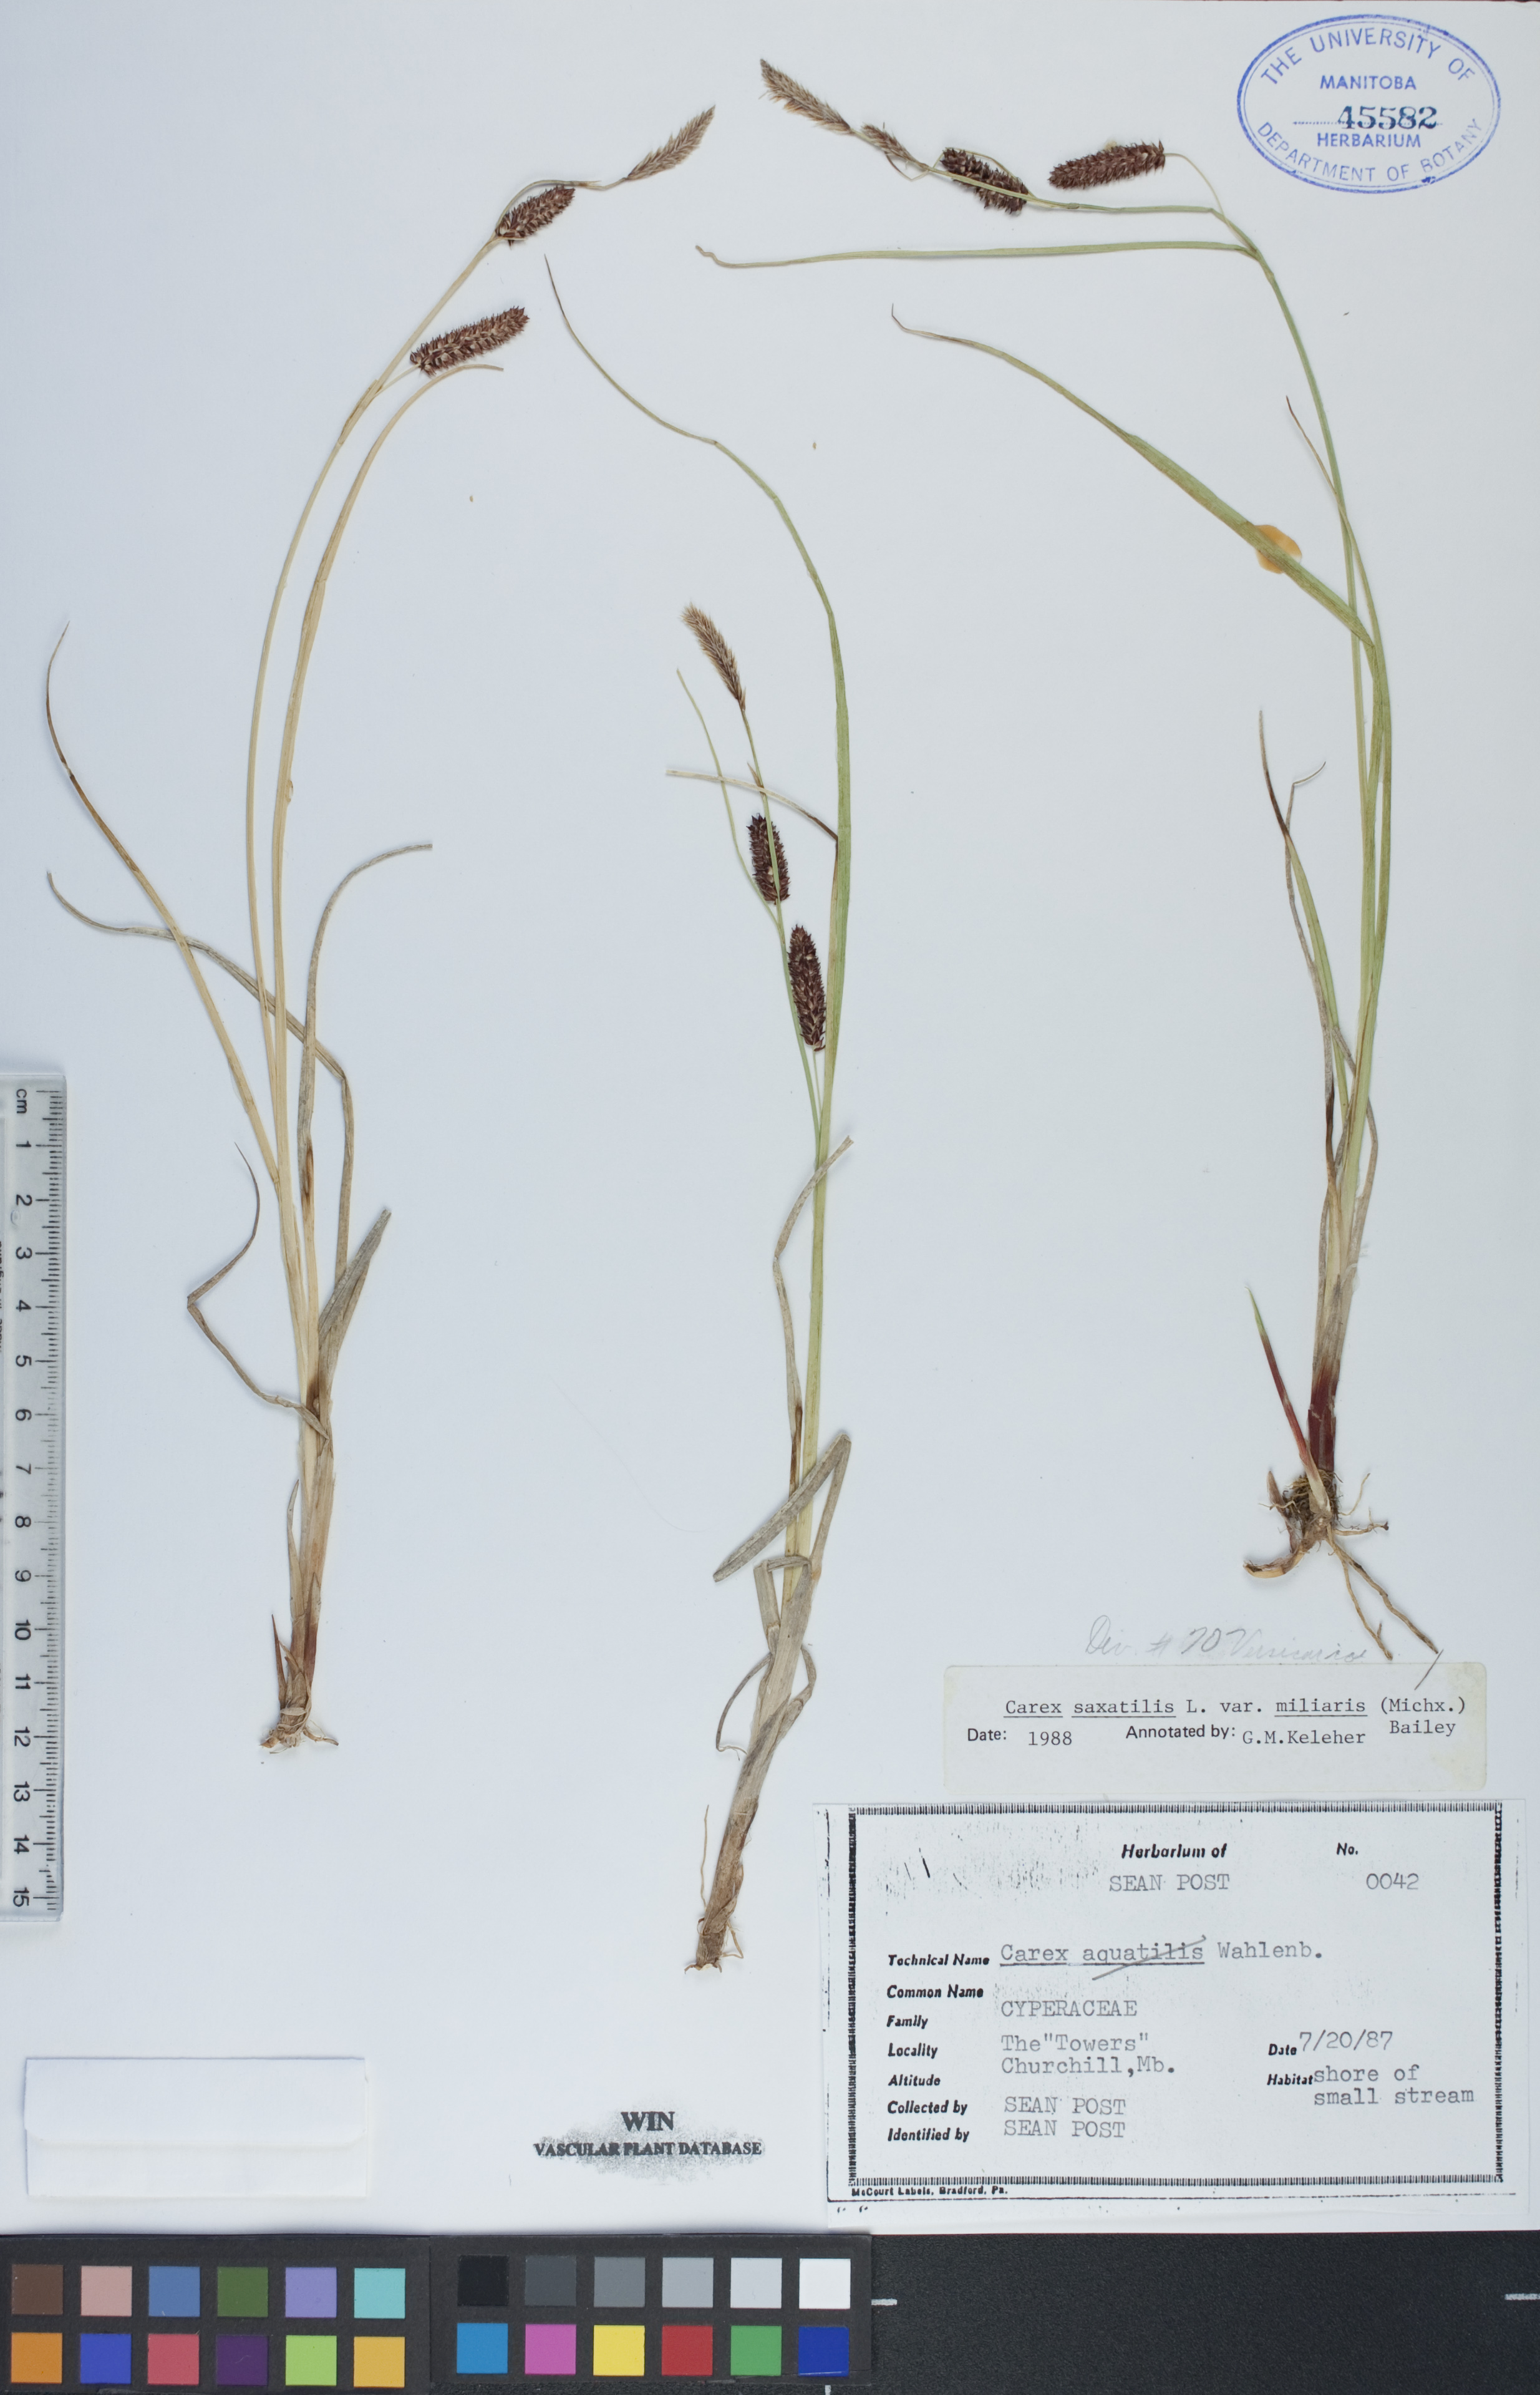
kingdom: Plantae
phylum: Tracheophyta
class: Liliopsida
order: Poales
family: Cyperaceae
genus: Carex
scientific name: Carex miliaris
